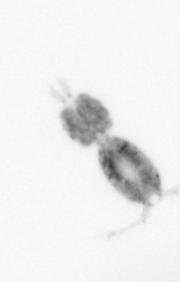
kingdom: Animalia
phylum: Arthropoda
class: Copepoda
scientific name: Copepoda
